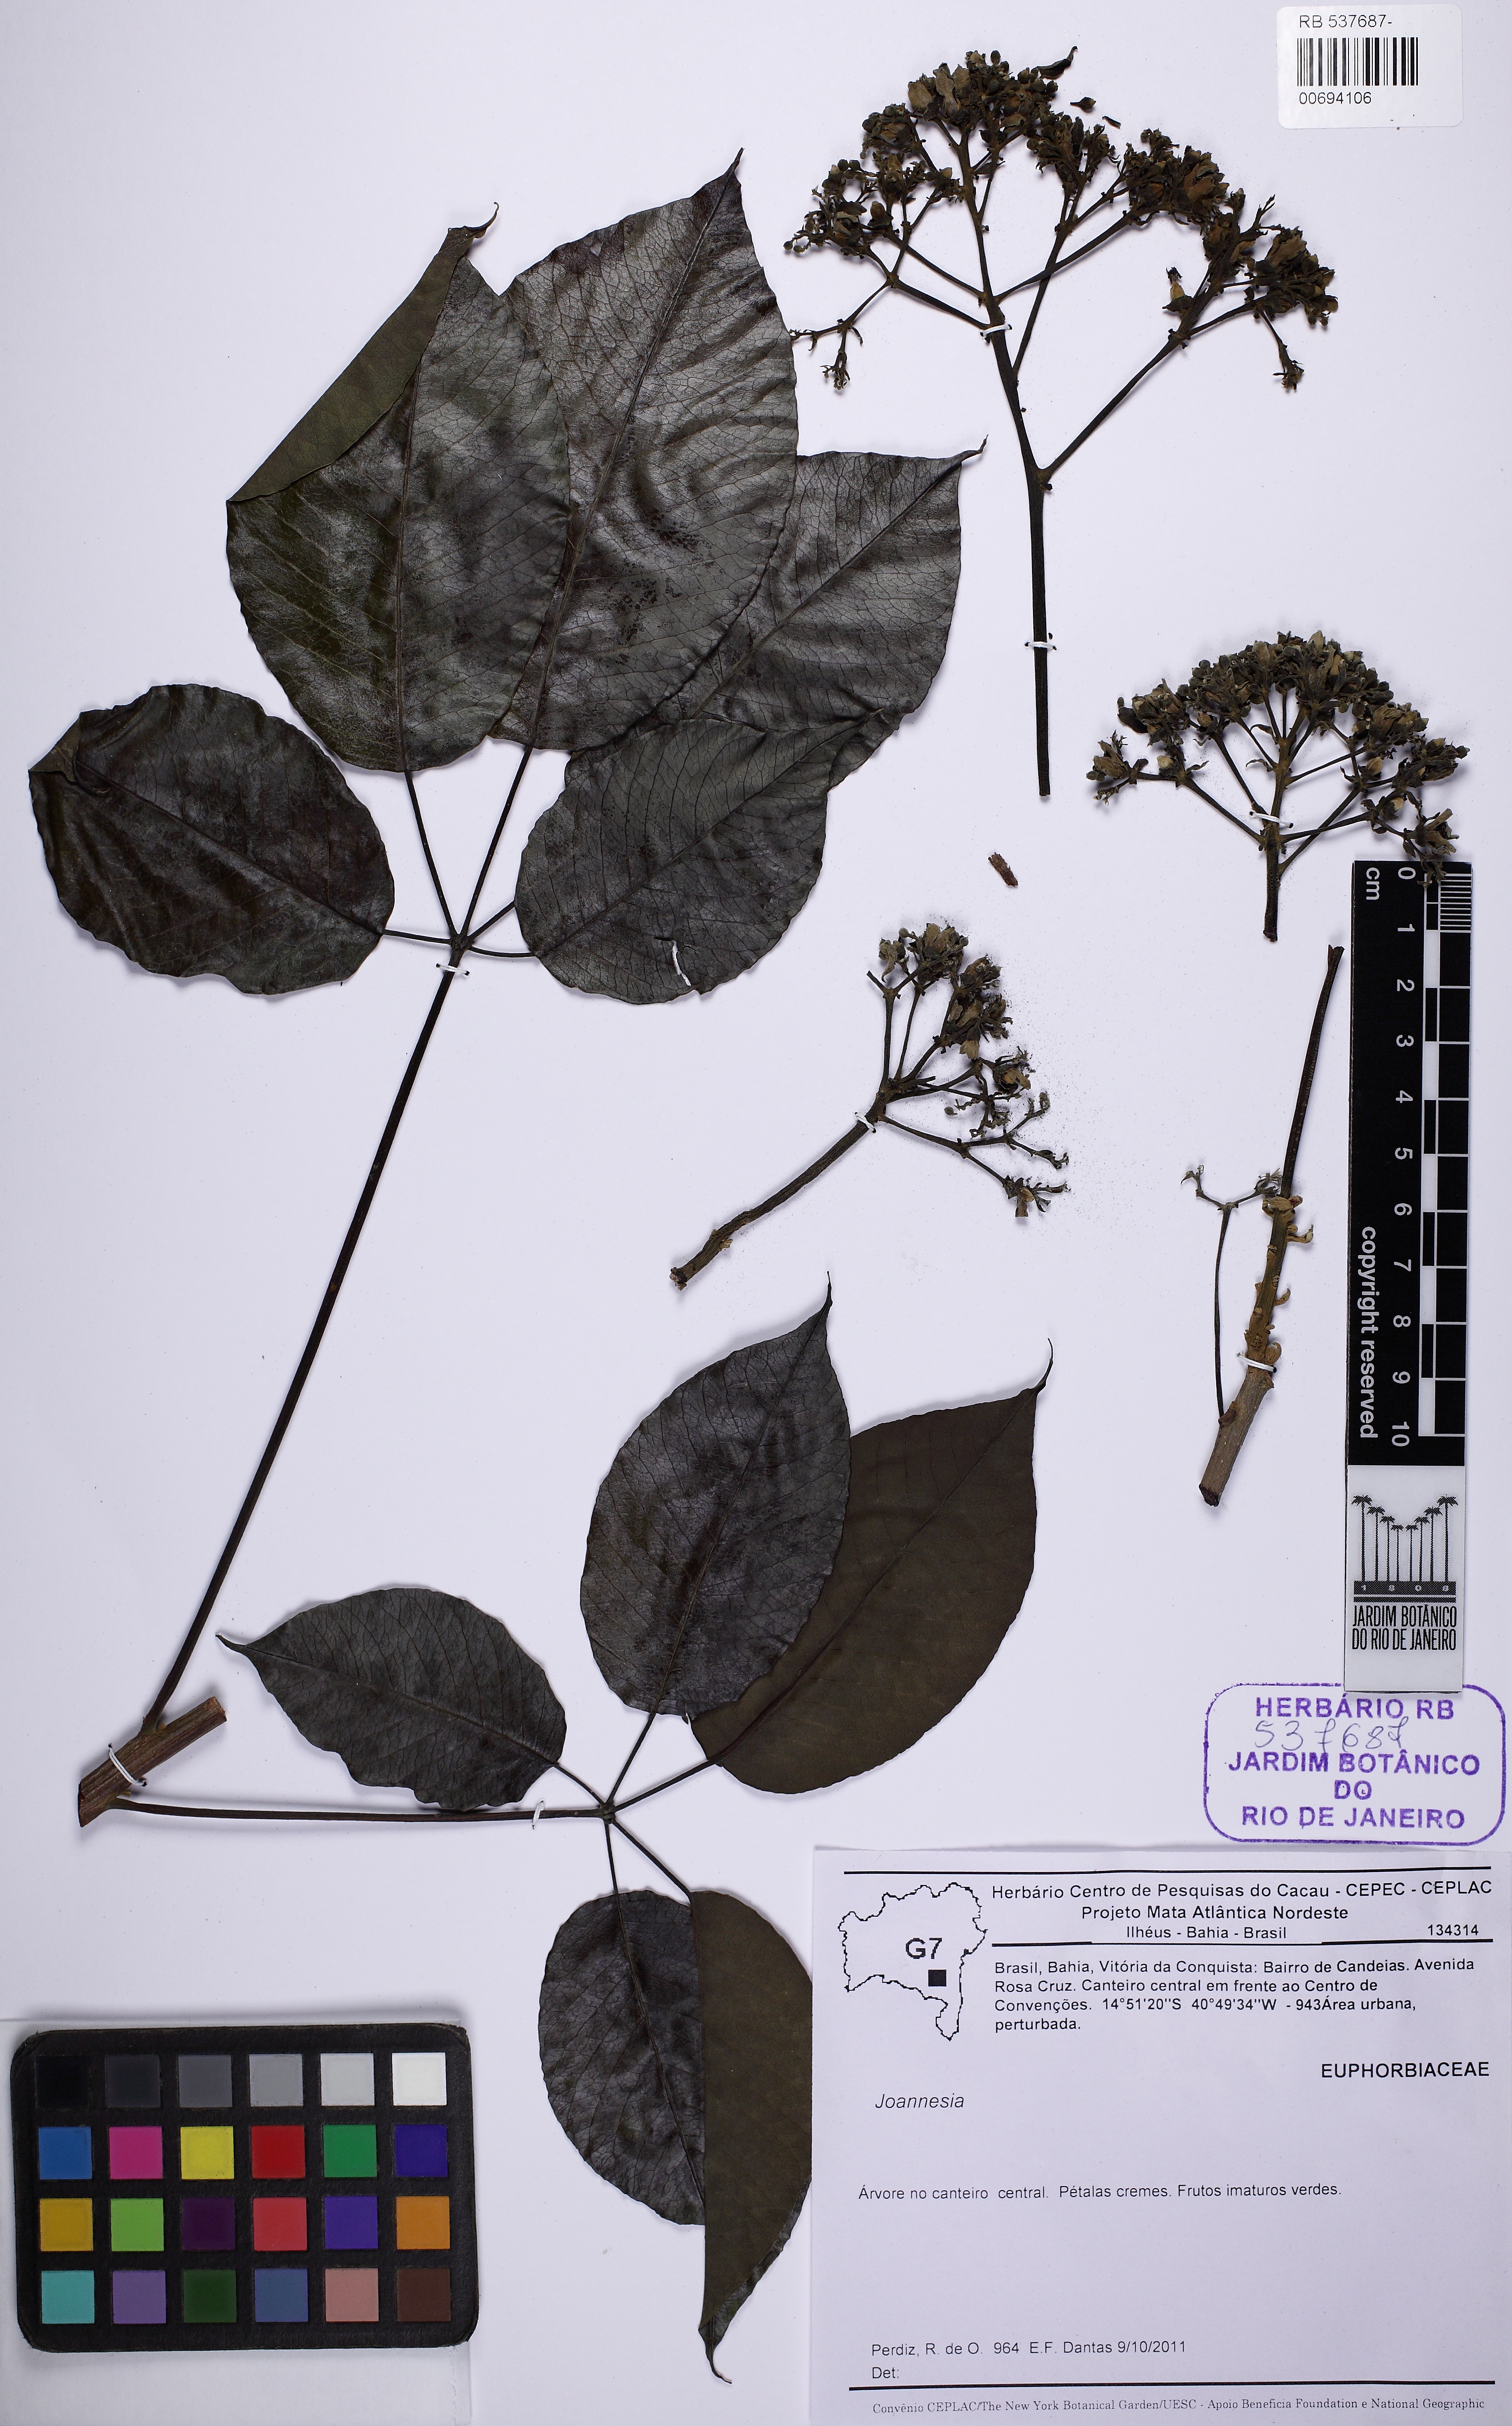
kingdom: Plantae
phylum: Tracheophyta
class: Magnoliopsida
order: Malpighiales
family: Euphorbiaceae
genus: Joannesia
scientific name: Joannesia
